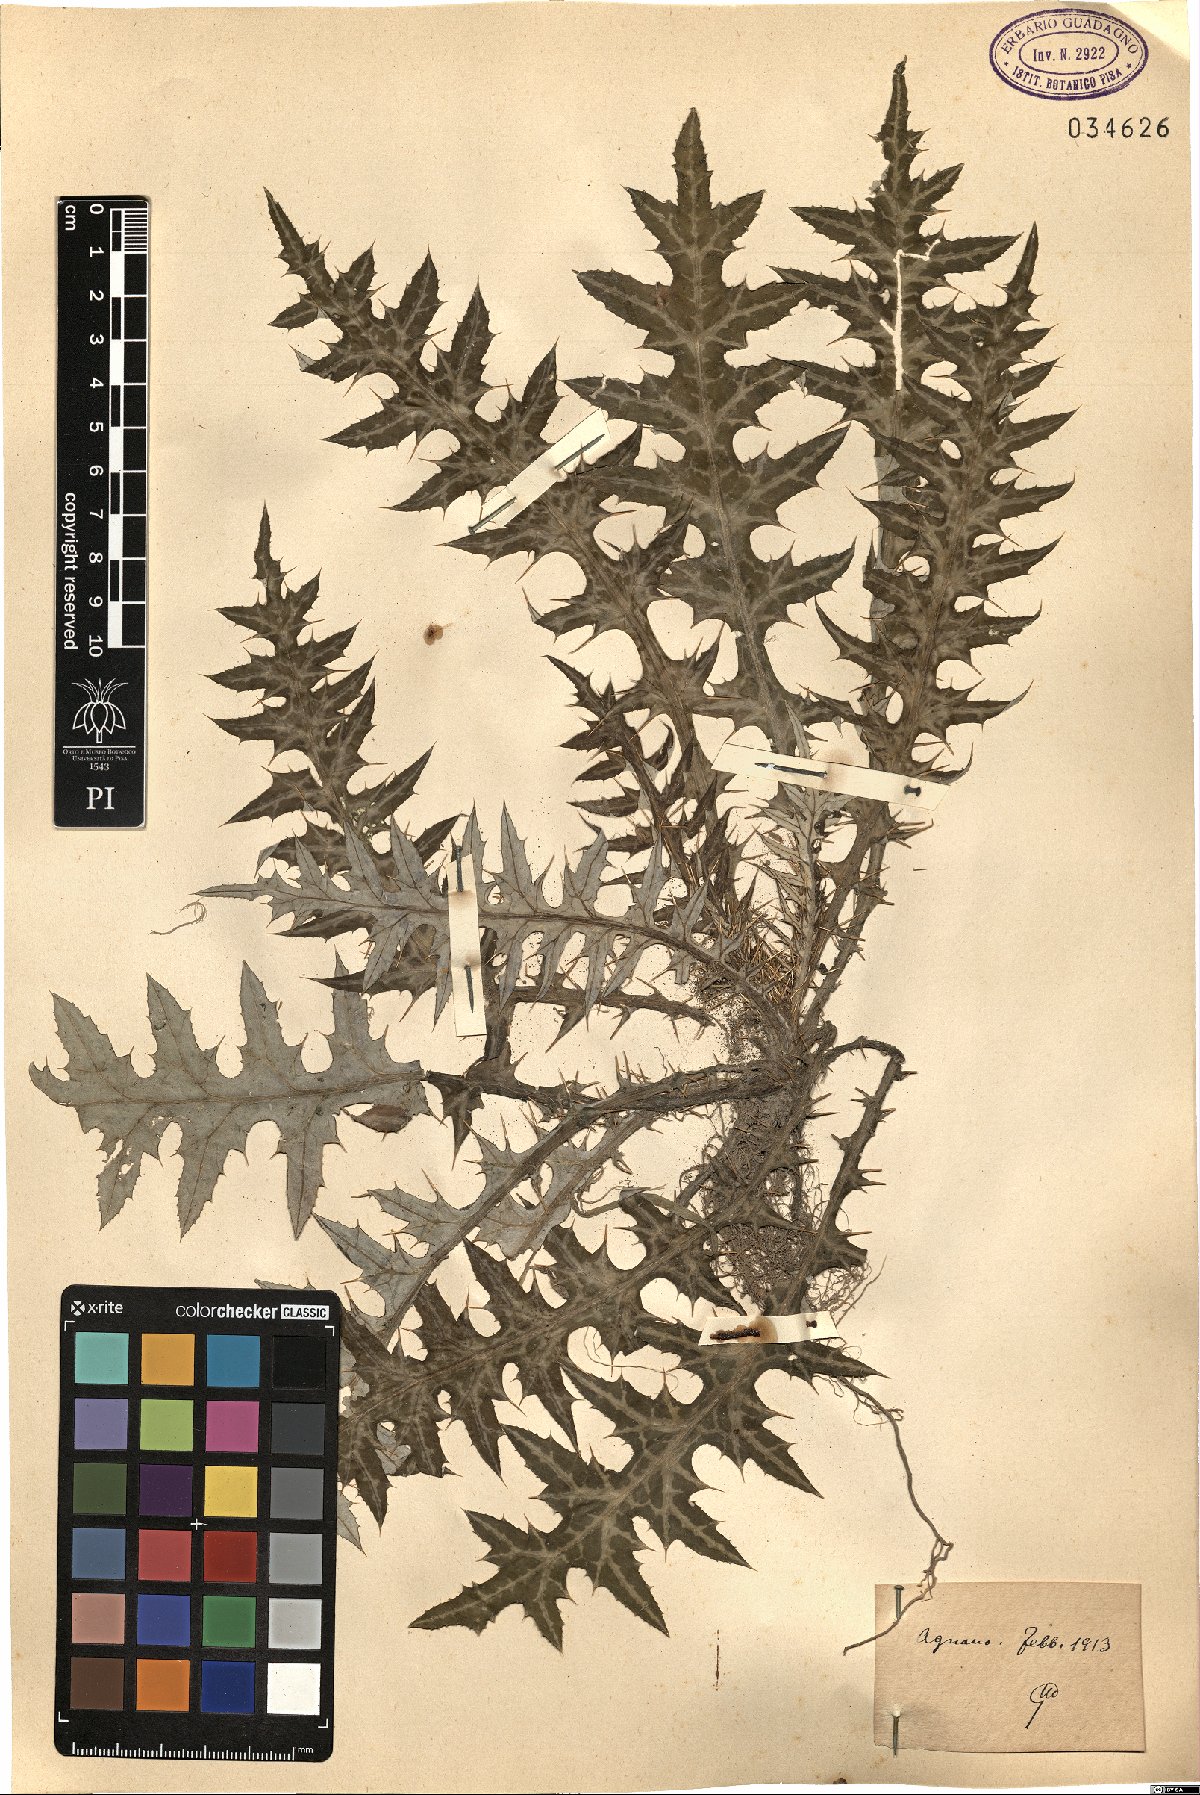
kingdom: Plantae
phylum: Tracheophyta
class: Magnoliopsida
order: Asterales
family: Asteraceae
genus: Galactites
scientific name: Galactites
